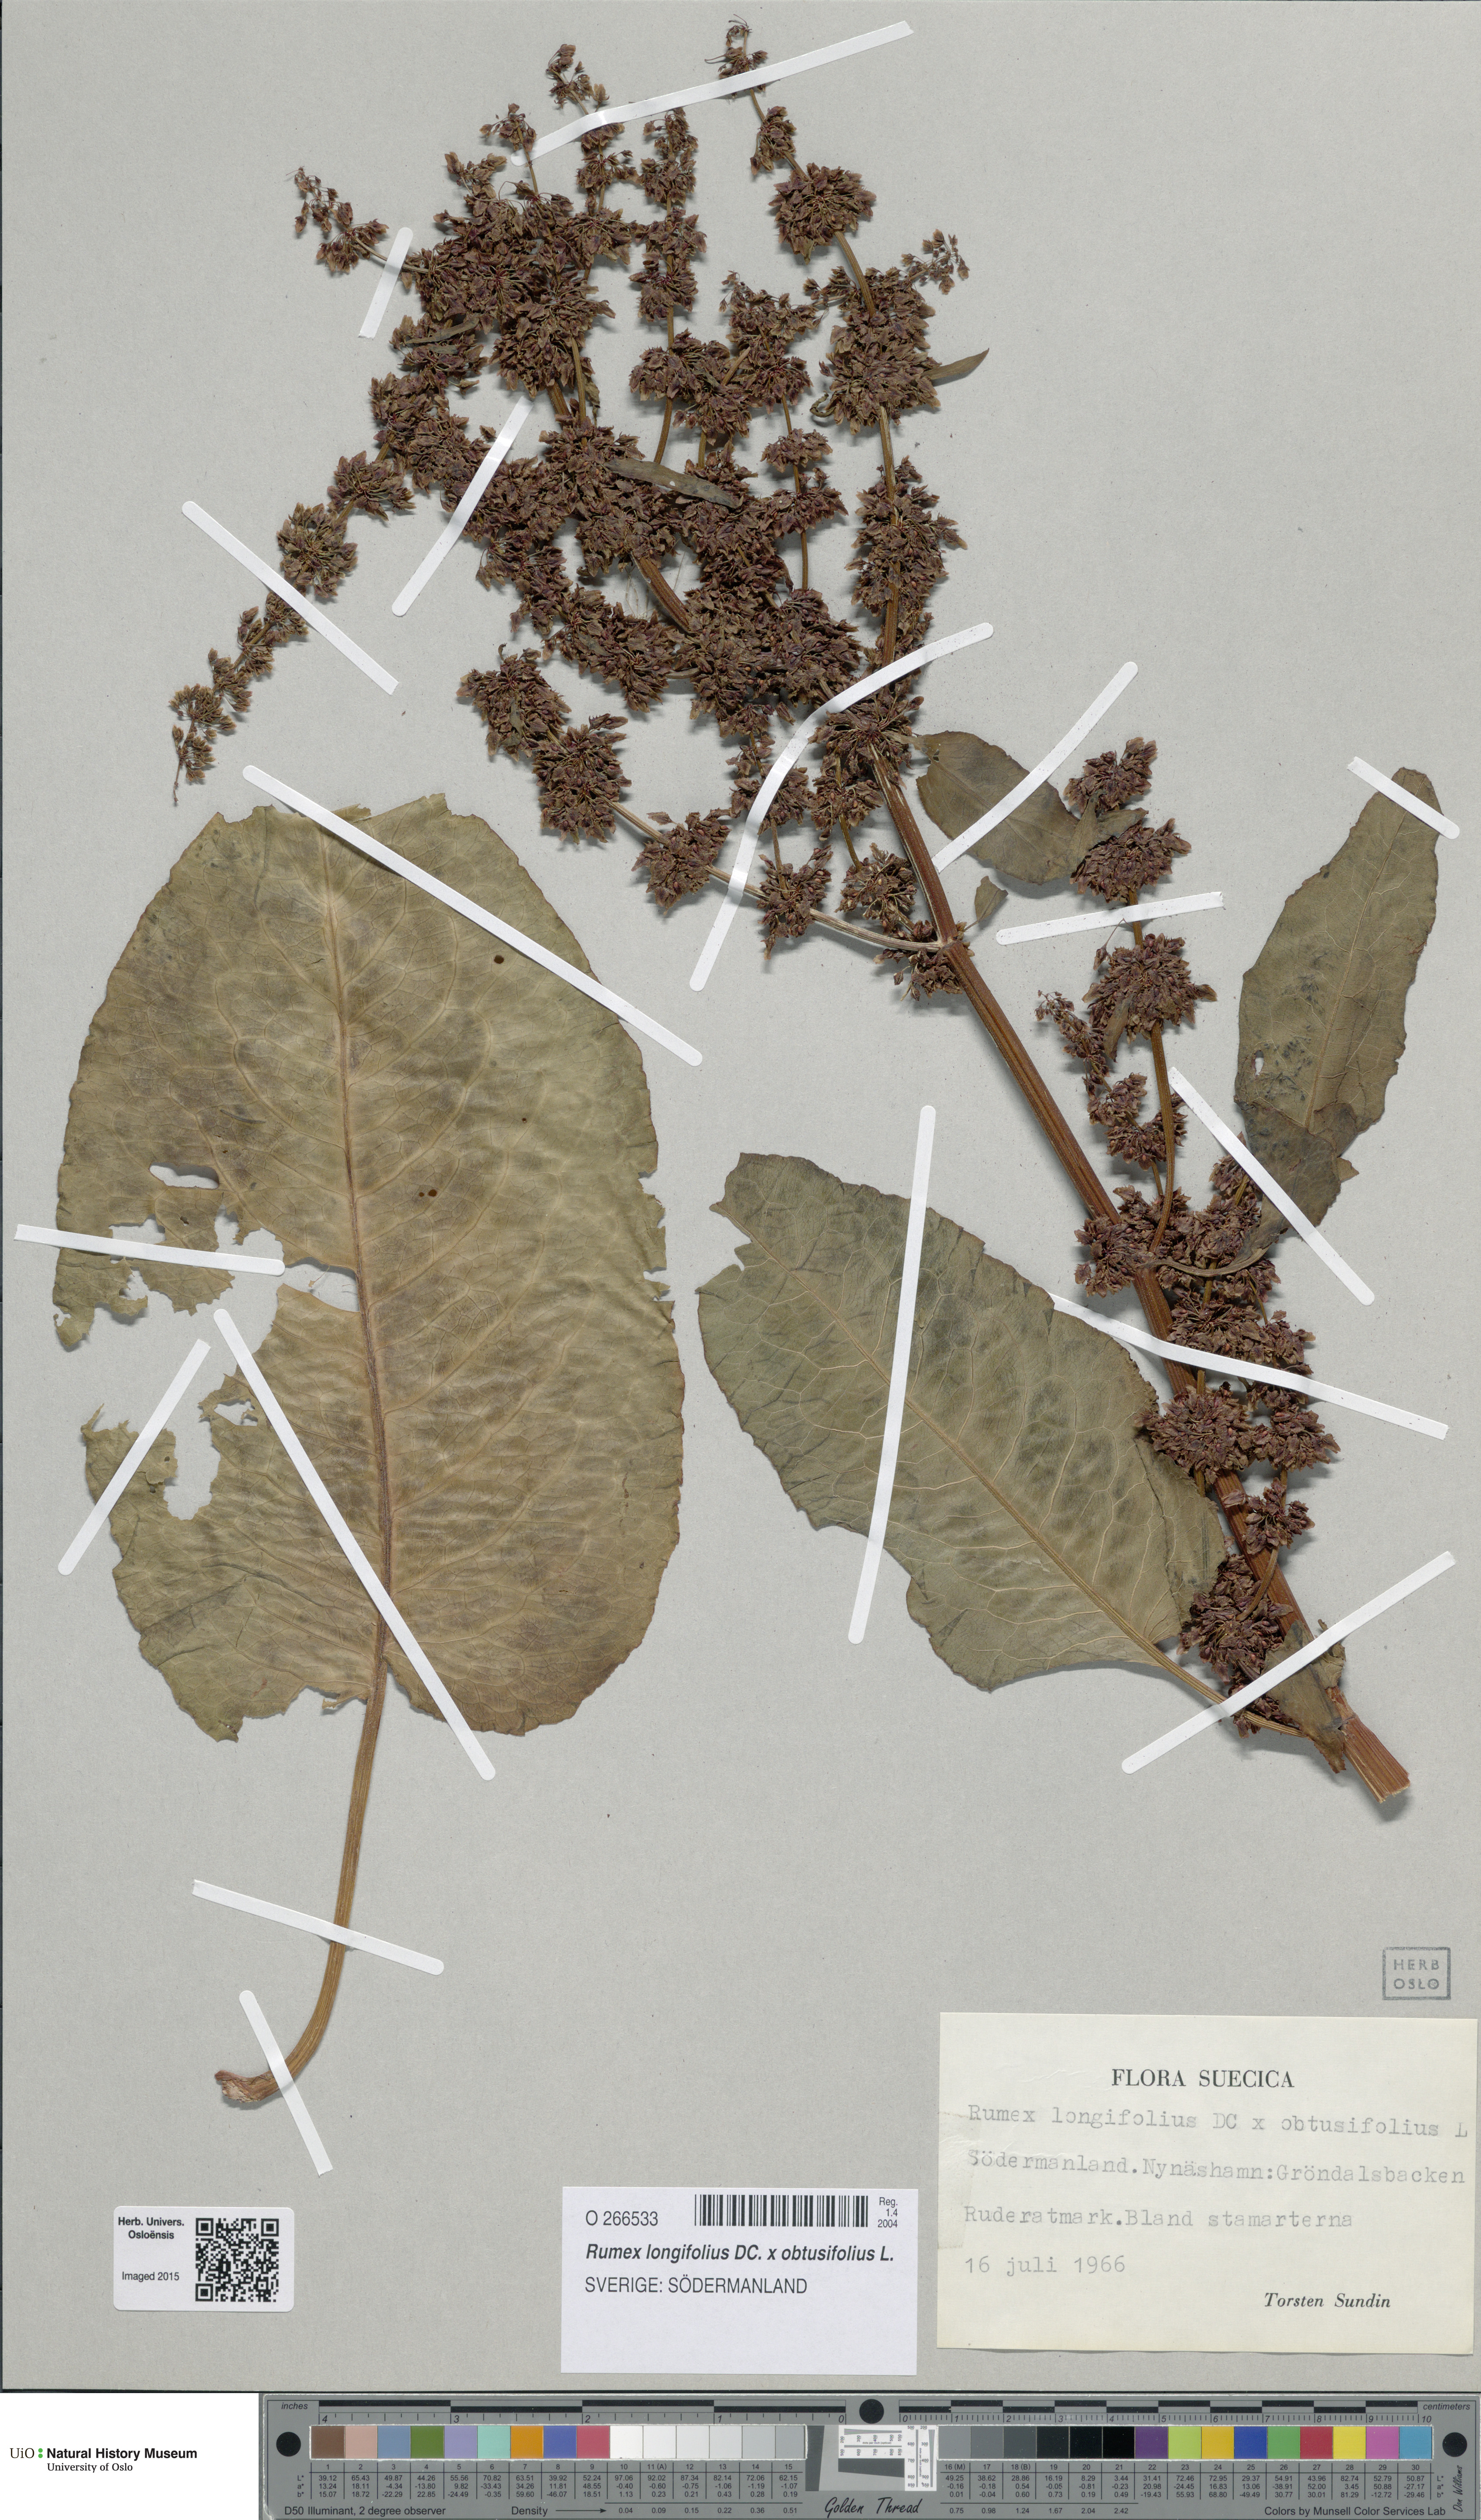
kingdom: Plantae
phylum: Tracheophyta
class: Magnoliopsida
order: Caryophyllales
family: Polygonaceae
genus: Rumex
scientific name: Rumex
